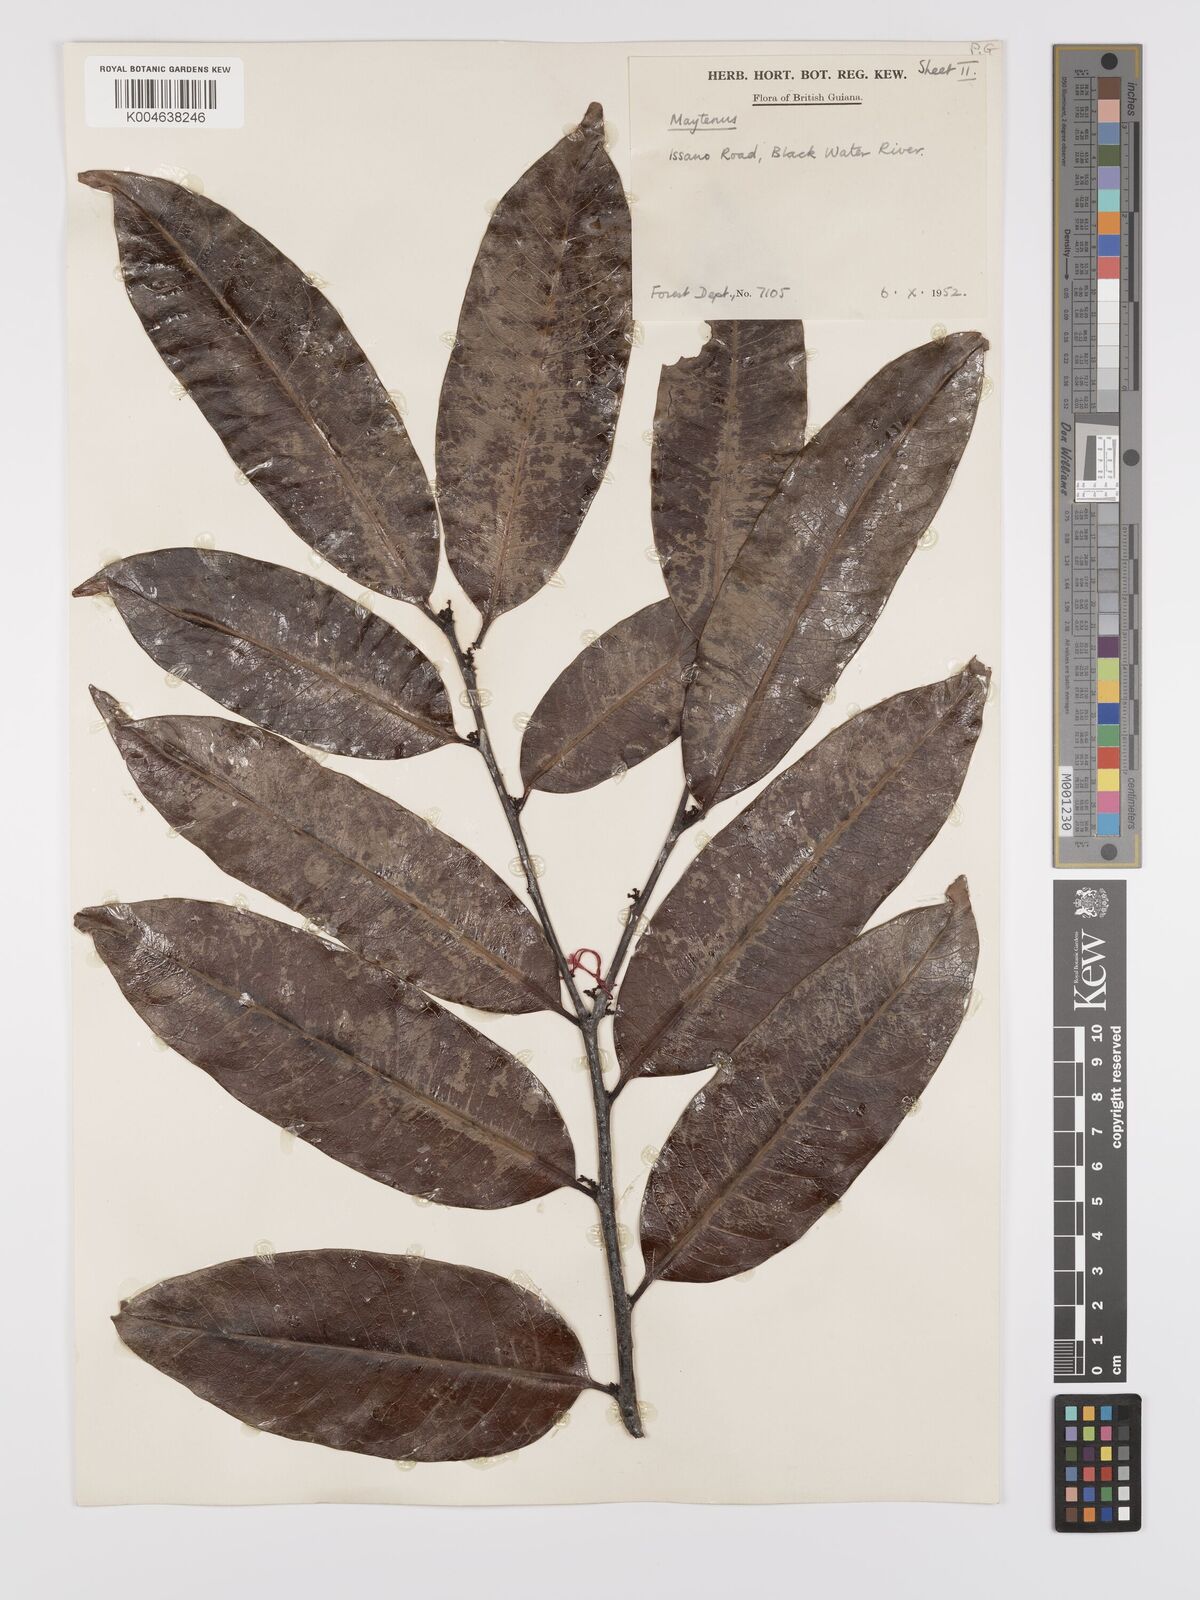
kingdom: Plantae
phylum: Tracheophyta
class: Magnoliopsida
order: Celastrales
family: Celastraceae
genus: Maytenus
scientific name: Maytenus
